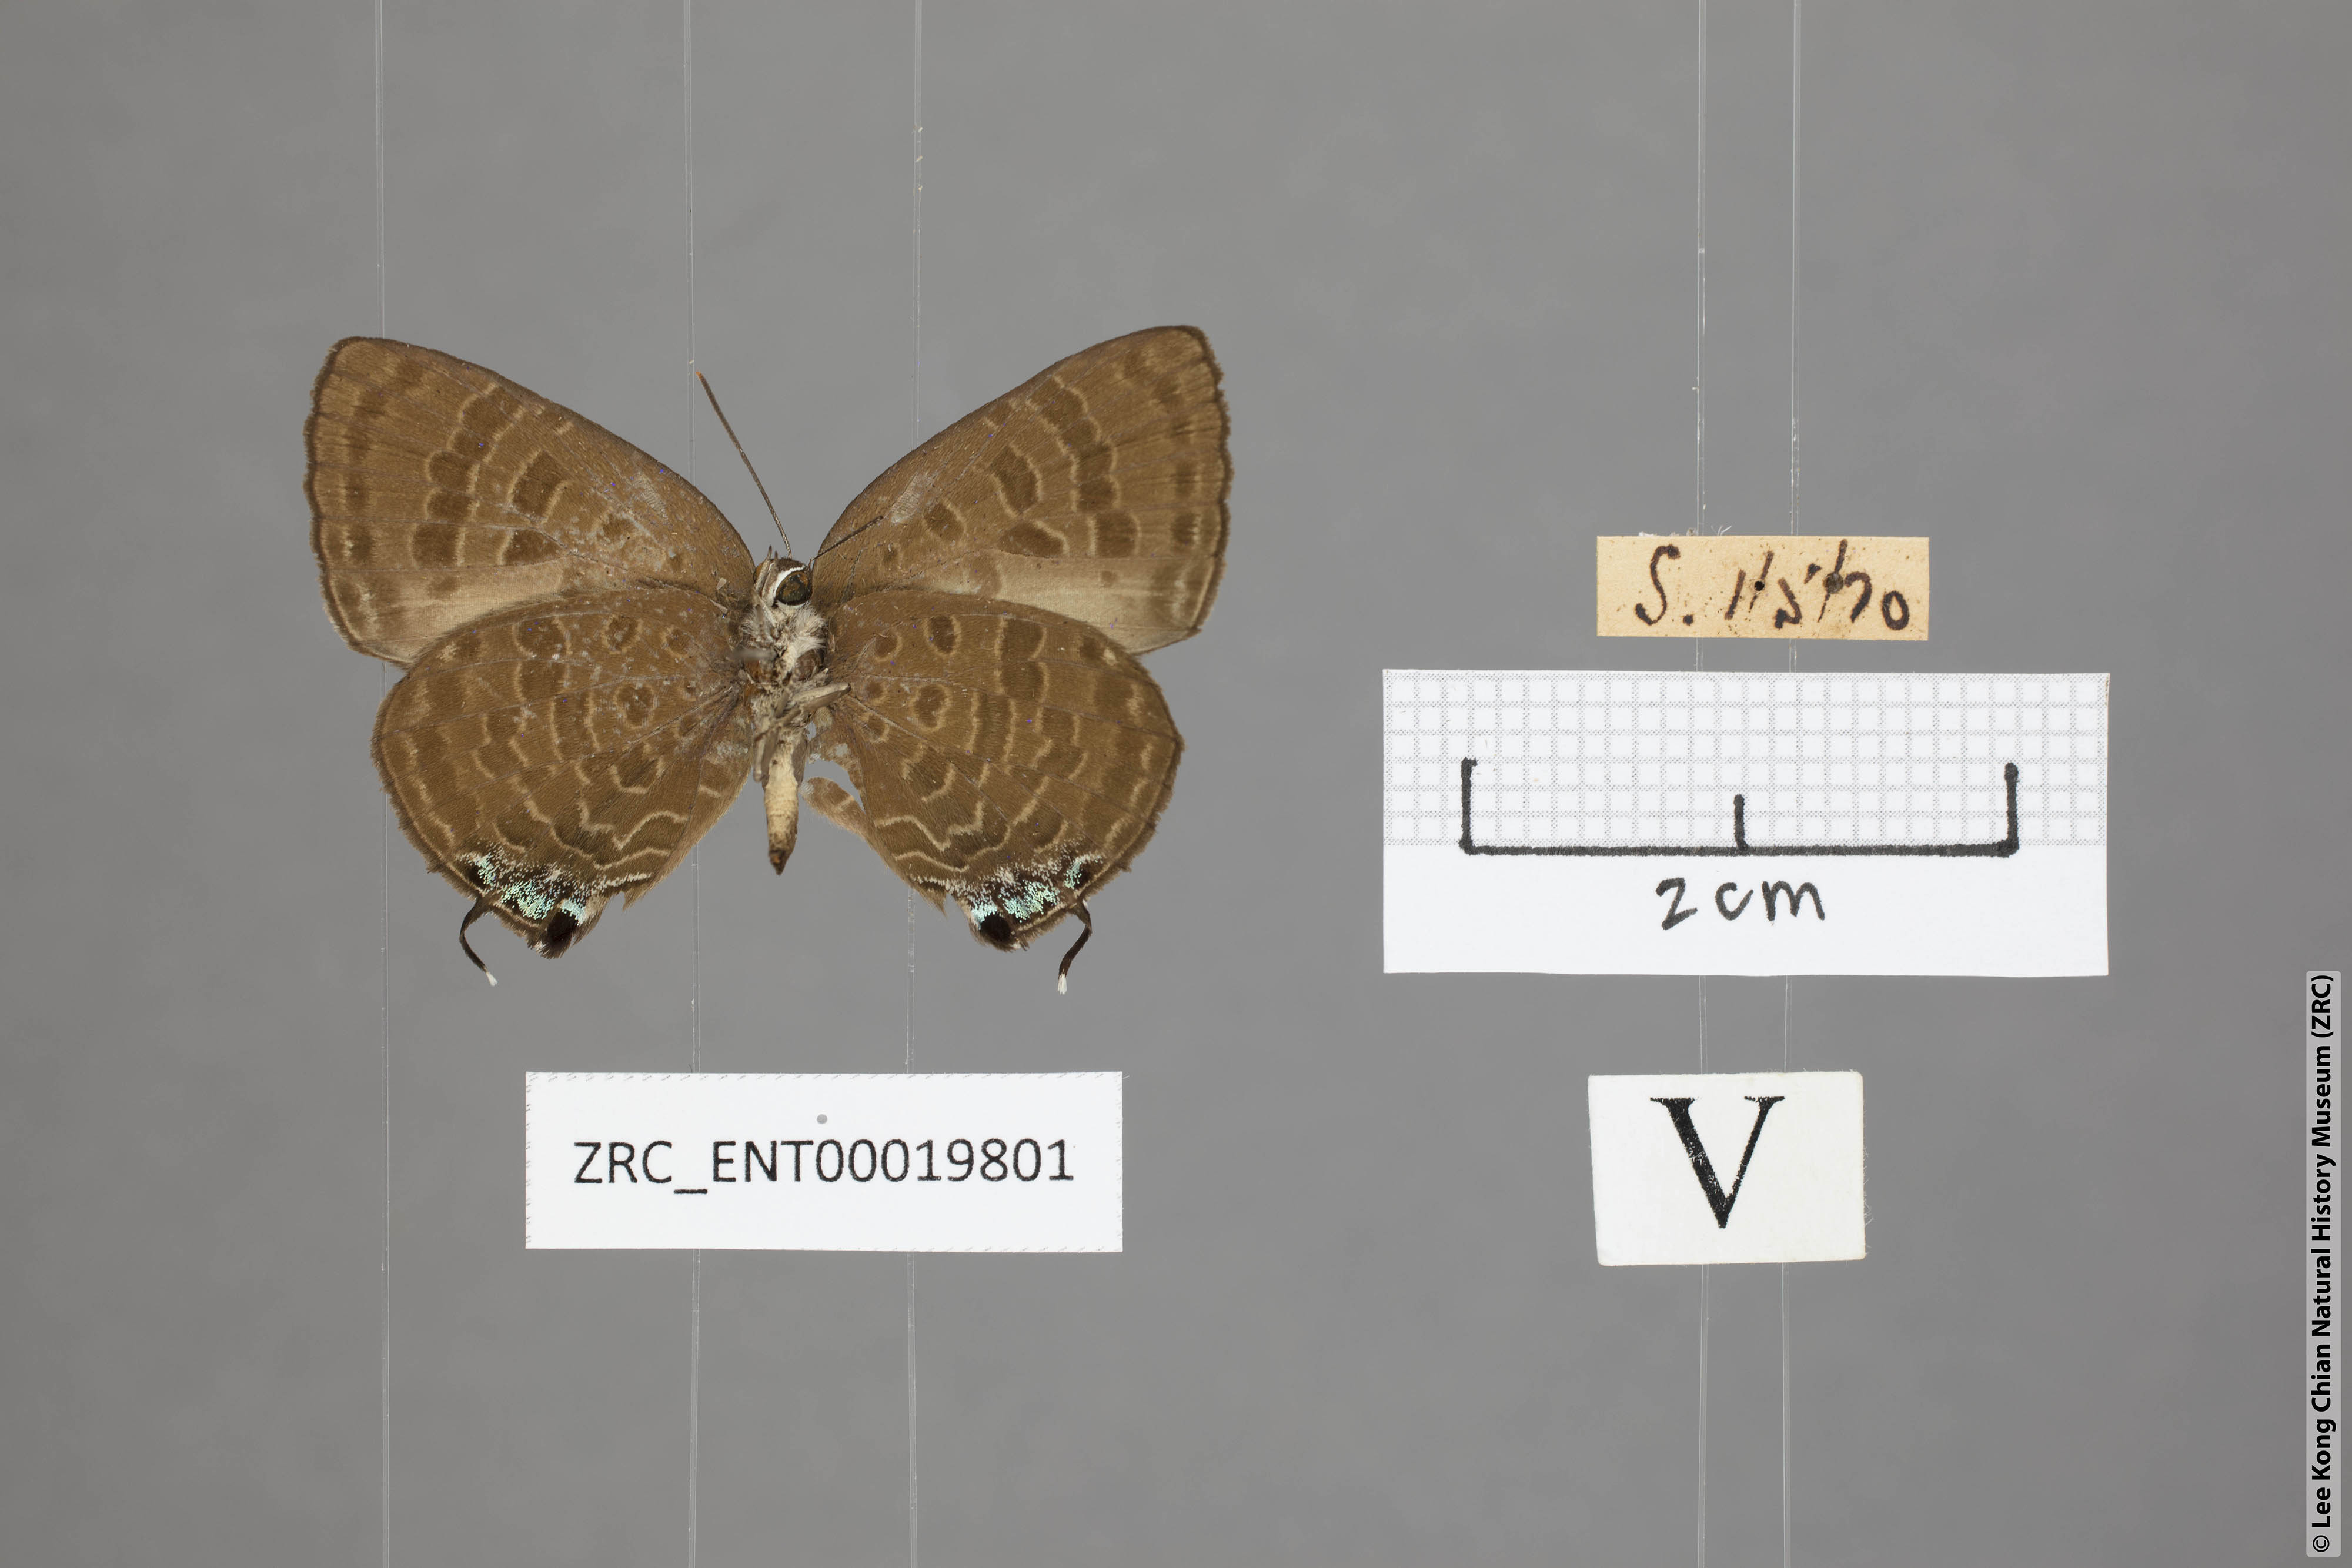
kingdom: Animalia
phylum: Arthropoda
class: Insecta
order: Lepidoptera
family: Lycaenidae
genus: Arhopala
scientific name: Arhopala phaenops
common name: Sumatran oakblue
